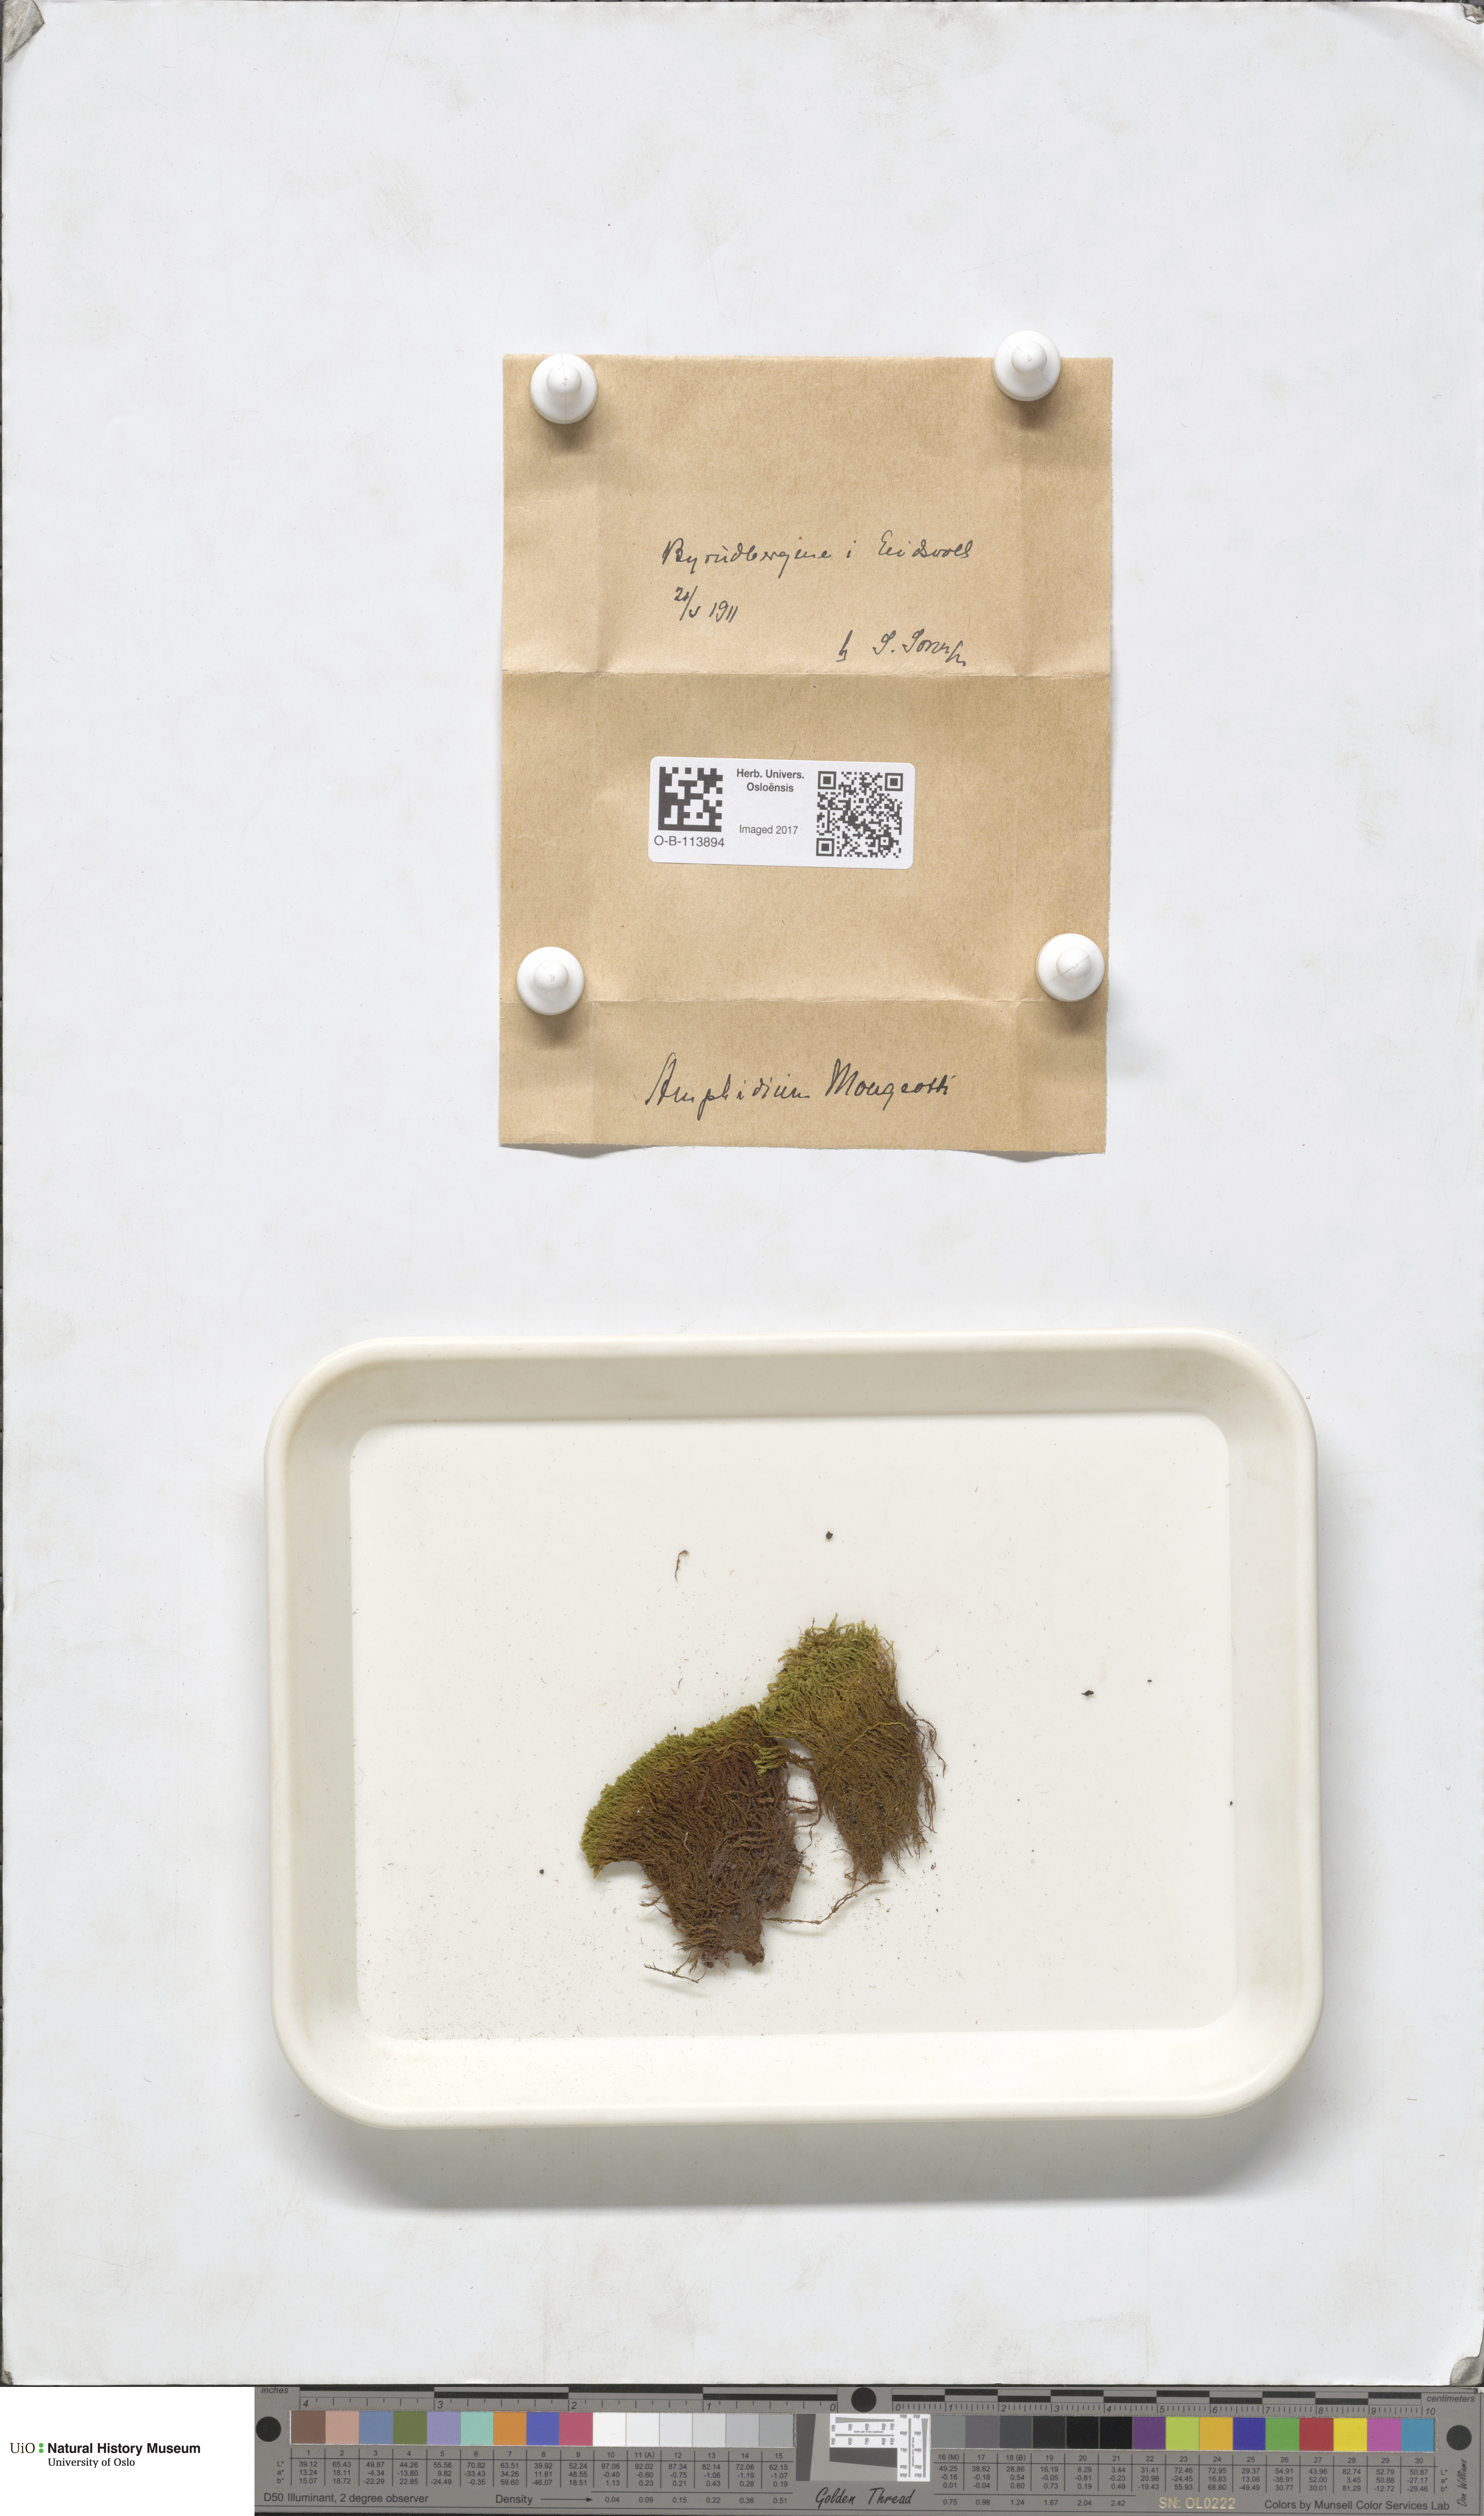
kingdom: Plantae
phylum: Bryophyta
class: Bryopsida
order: Dicranales
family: Amphidiaceae
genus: Amphidium
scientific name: Amphidium mougeotii
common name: Mougeot's yoke moss
